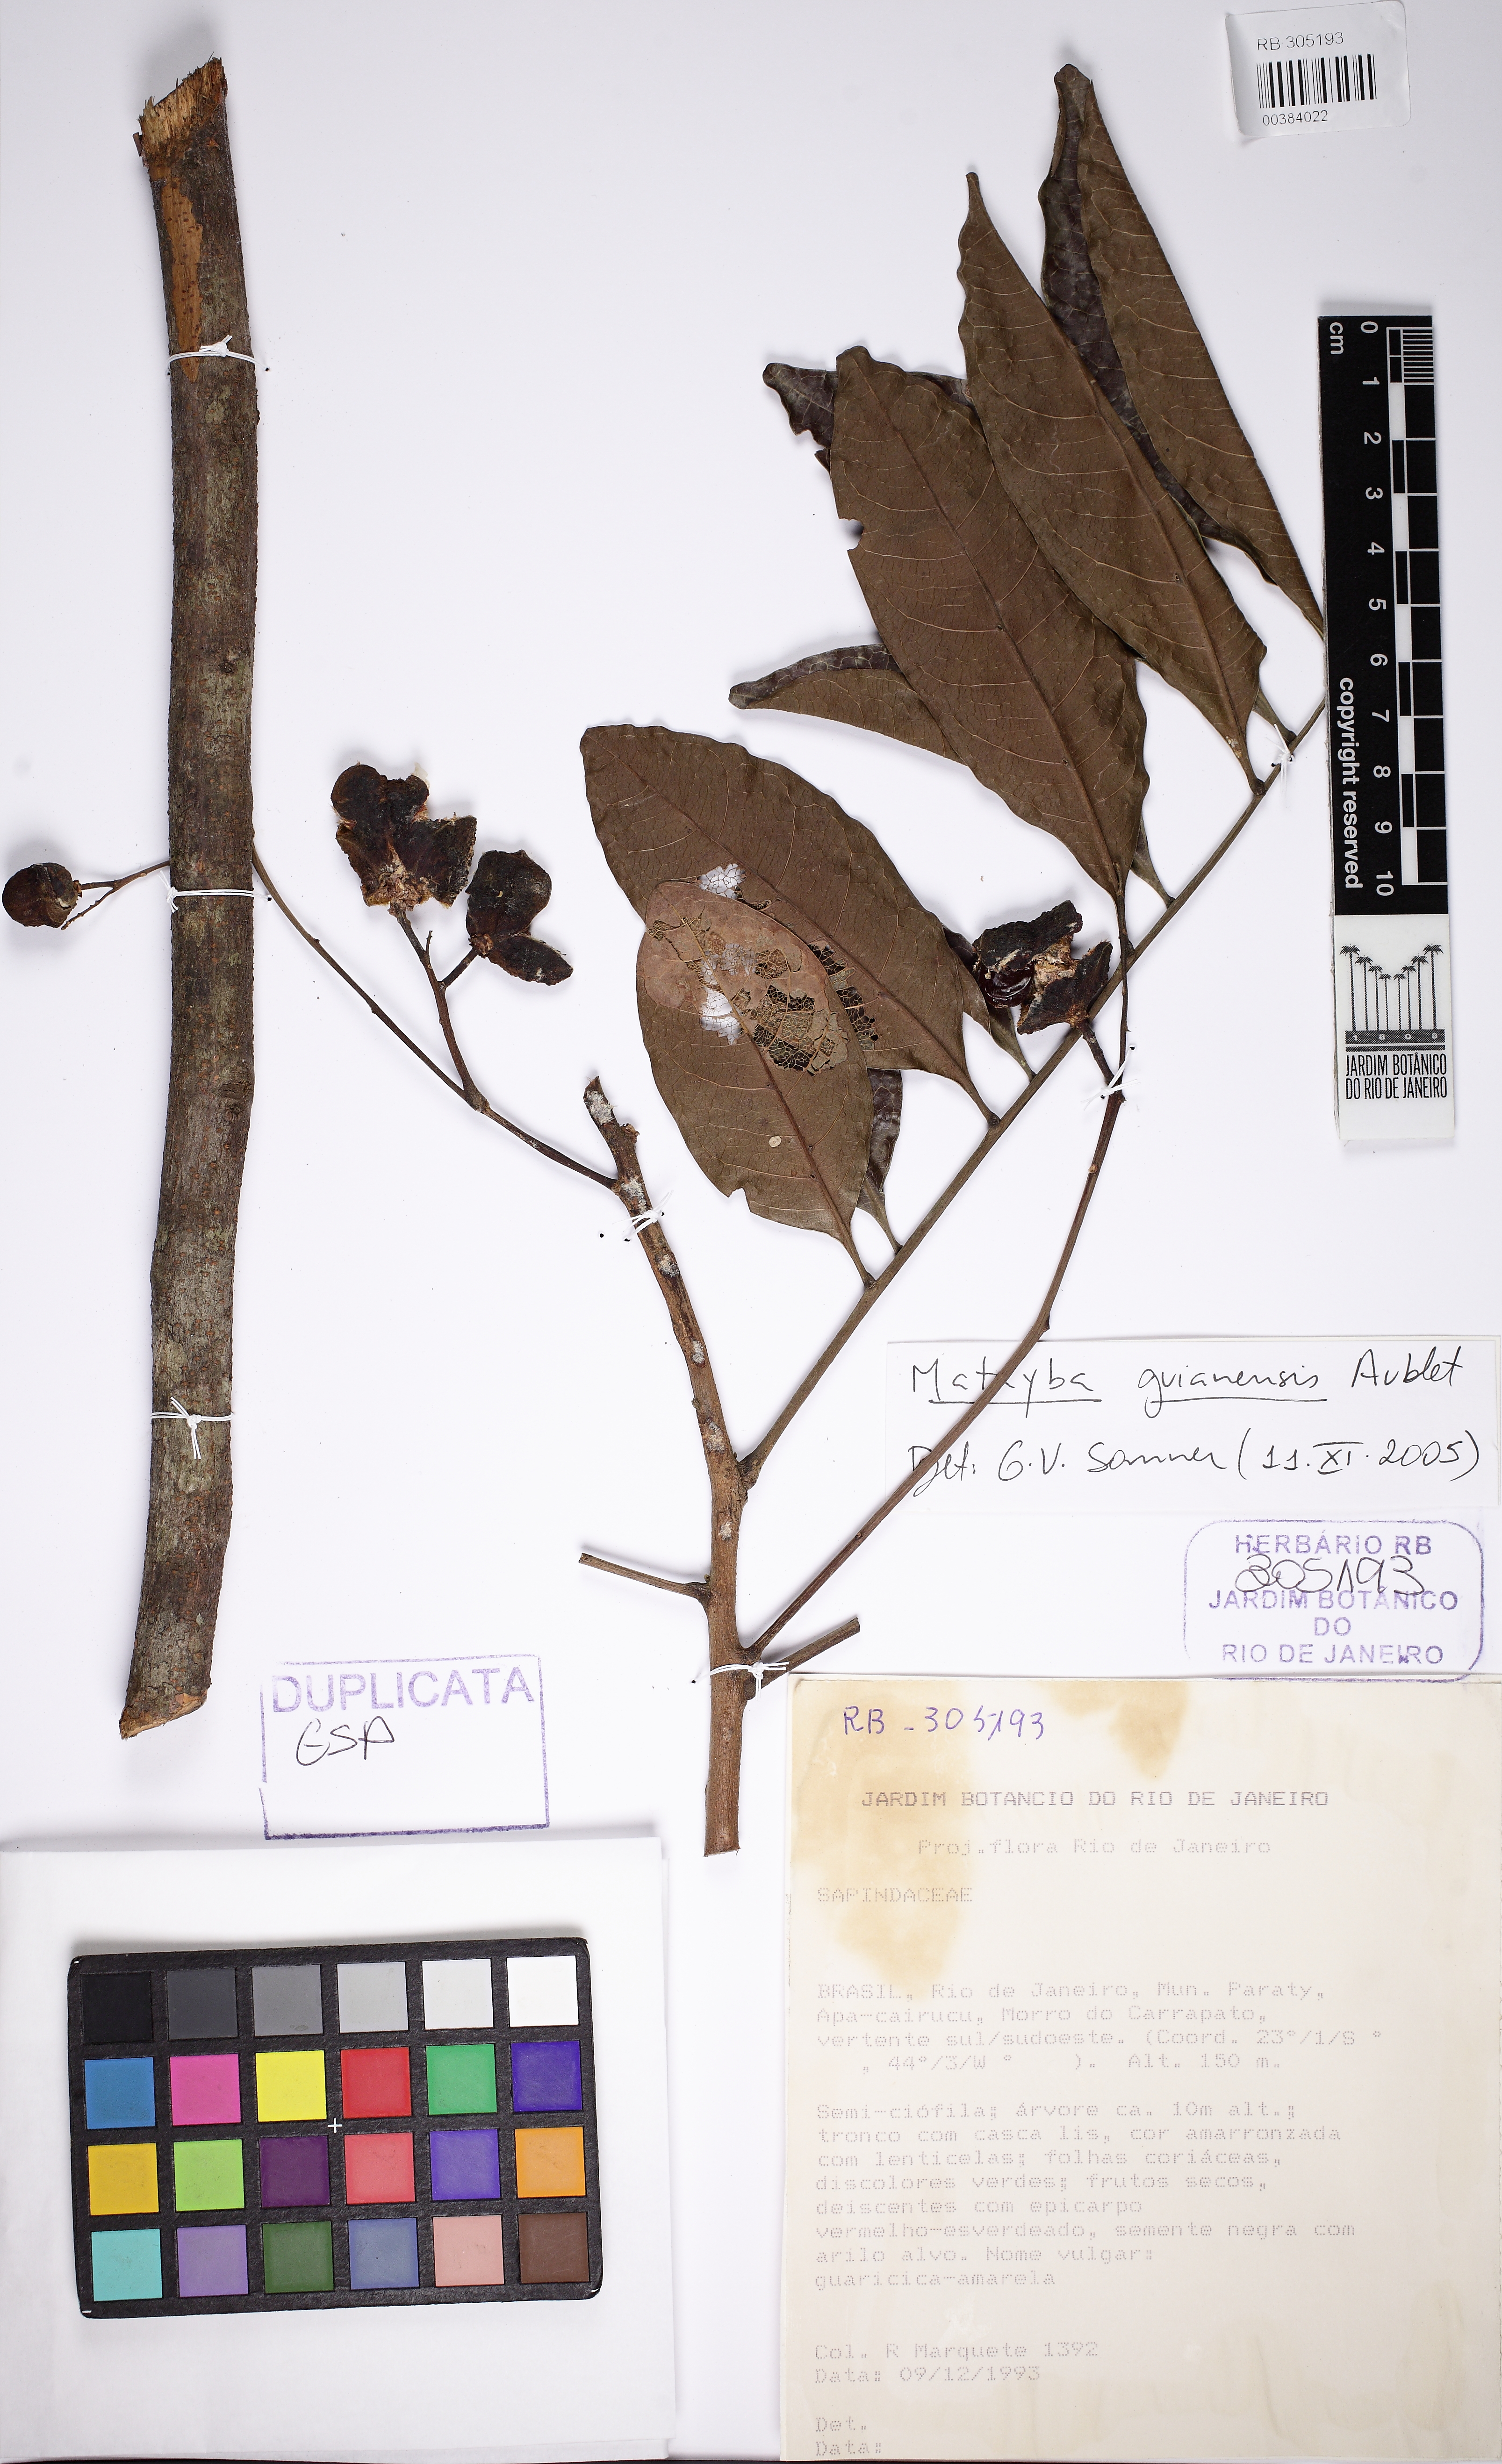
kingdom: Plantae
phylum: Tracheophyta
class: Magnoliopsida
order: Sapindales
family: Sapindaceae
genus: Matayba
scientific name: Matayba guianensis
